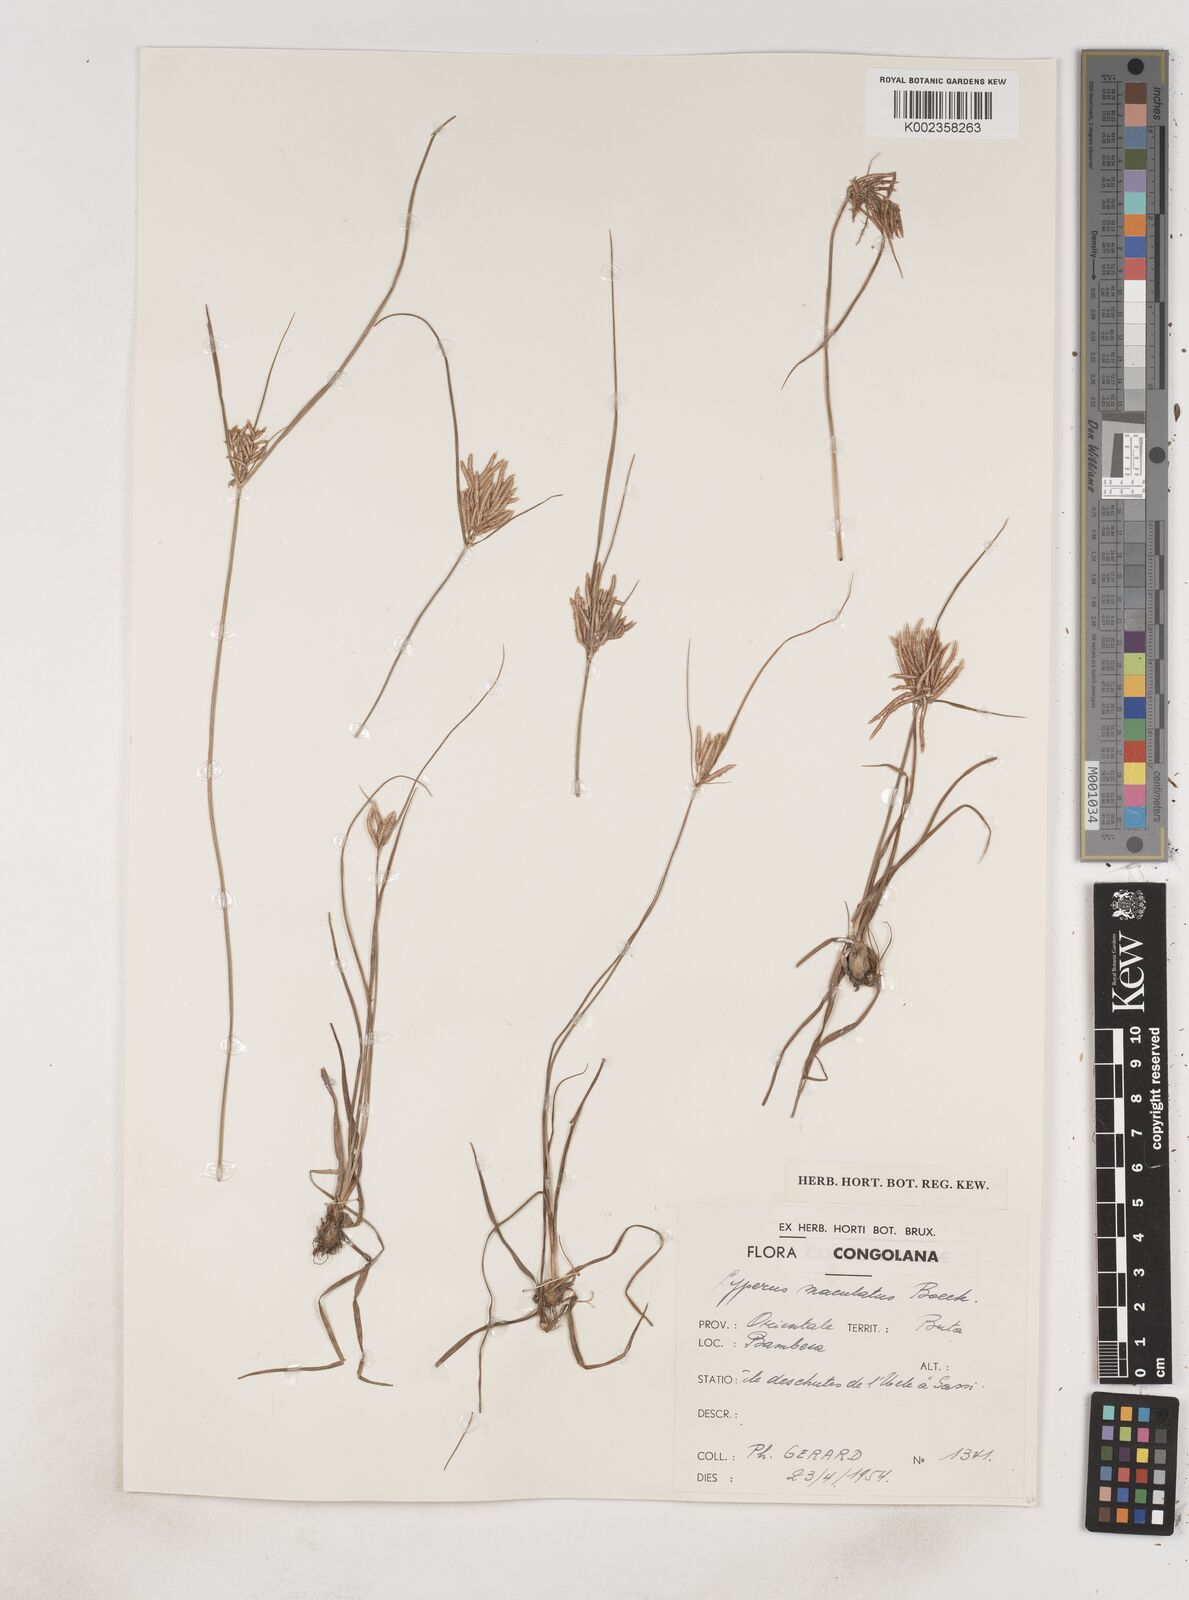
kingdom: Plantae
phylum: Tracheophyta
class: Liliopsida
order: Poales
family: Cyperaceae
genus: Cyperus
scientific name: Cyperus maculatus
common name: Maculated sedge
